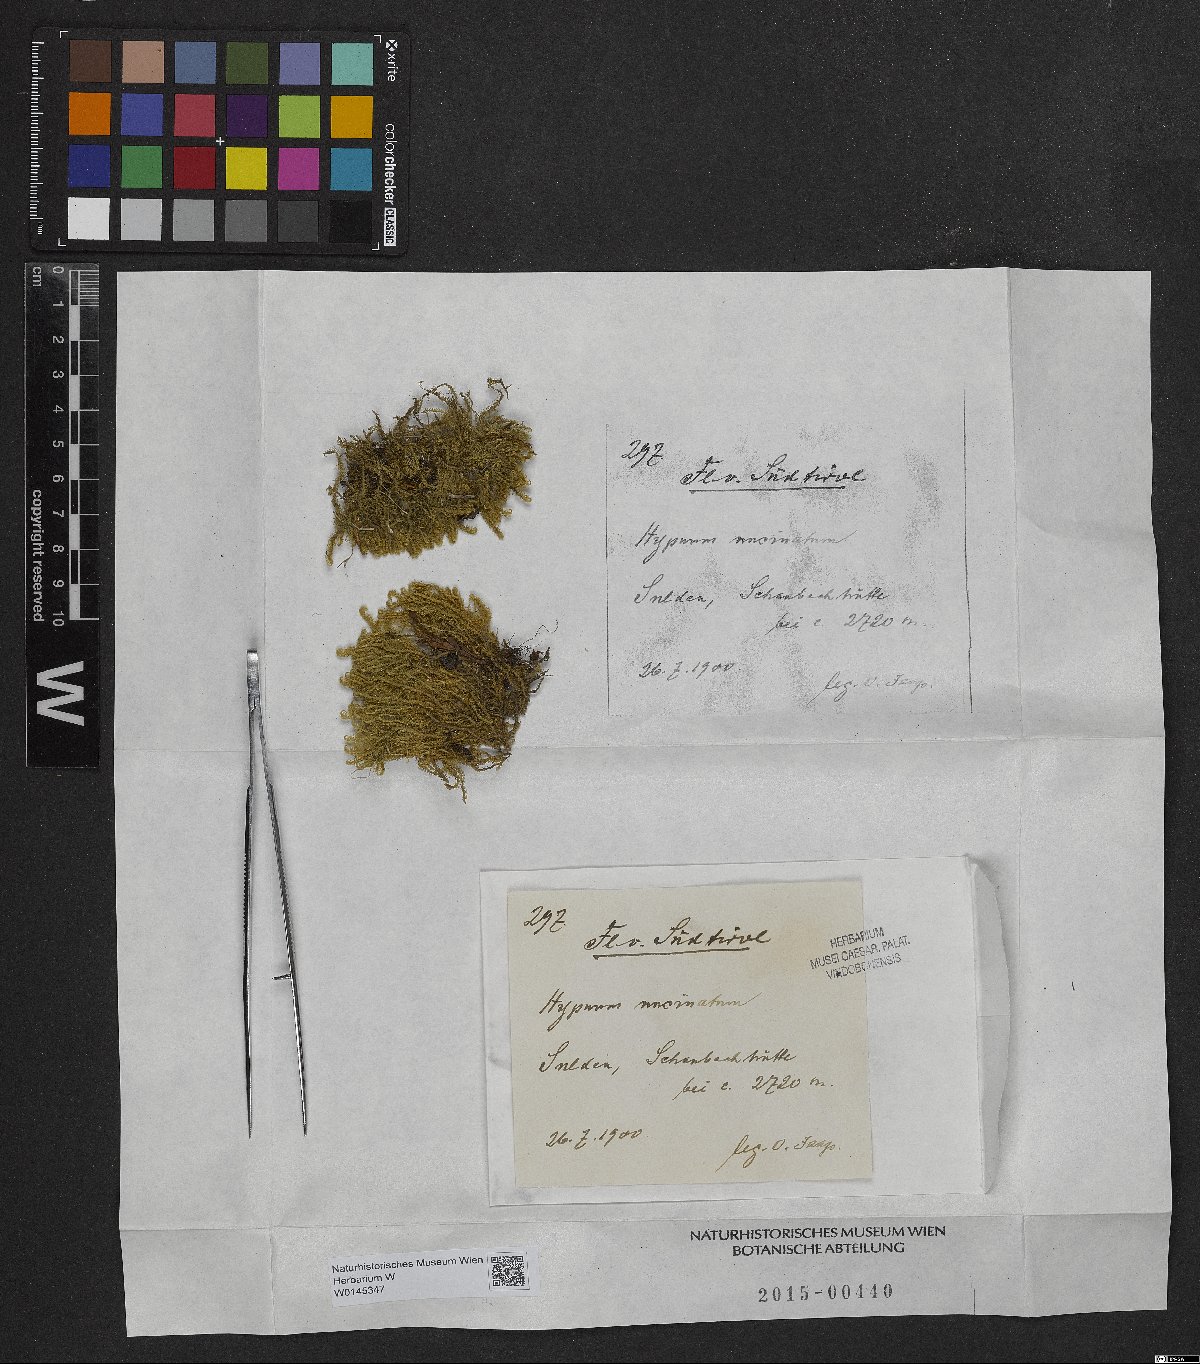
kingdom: Plantae
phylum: Bryophyta
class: Bryopsida
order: Hypnales
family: Scorpidiaceae
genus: Sanionia
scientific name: Sanionia uncinata
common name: Sickle moss
